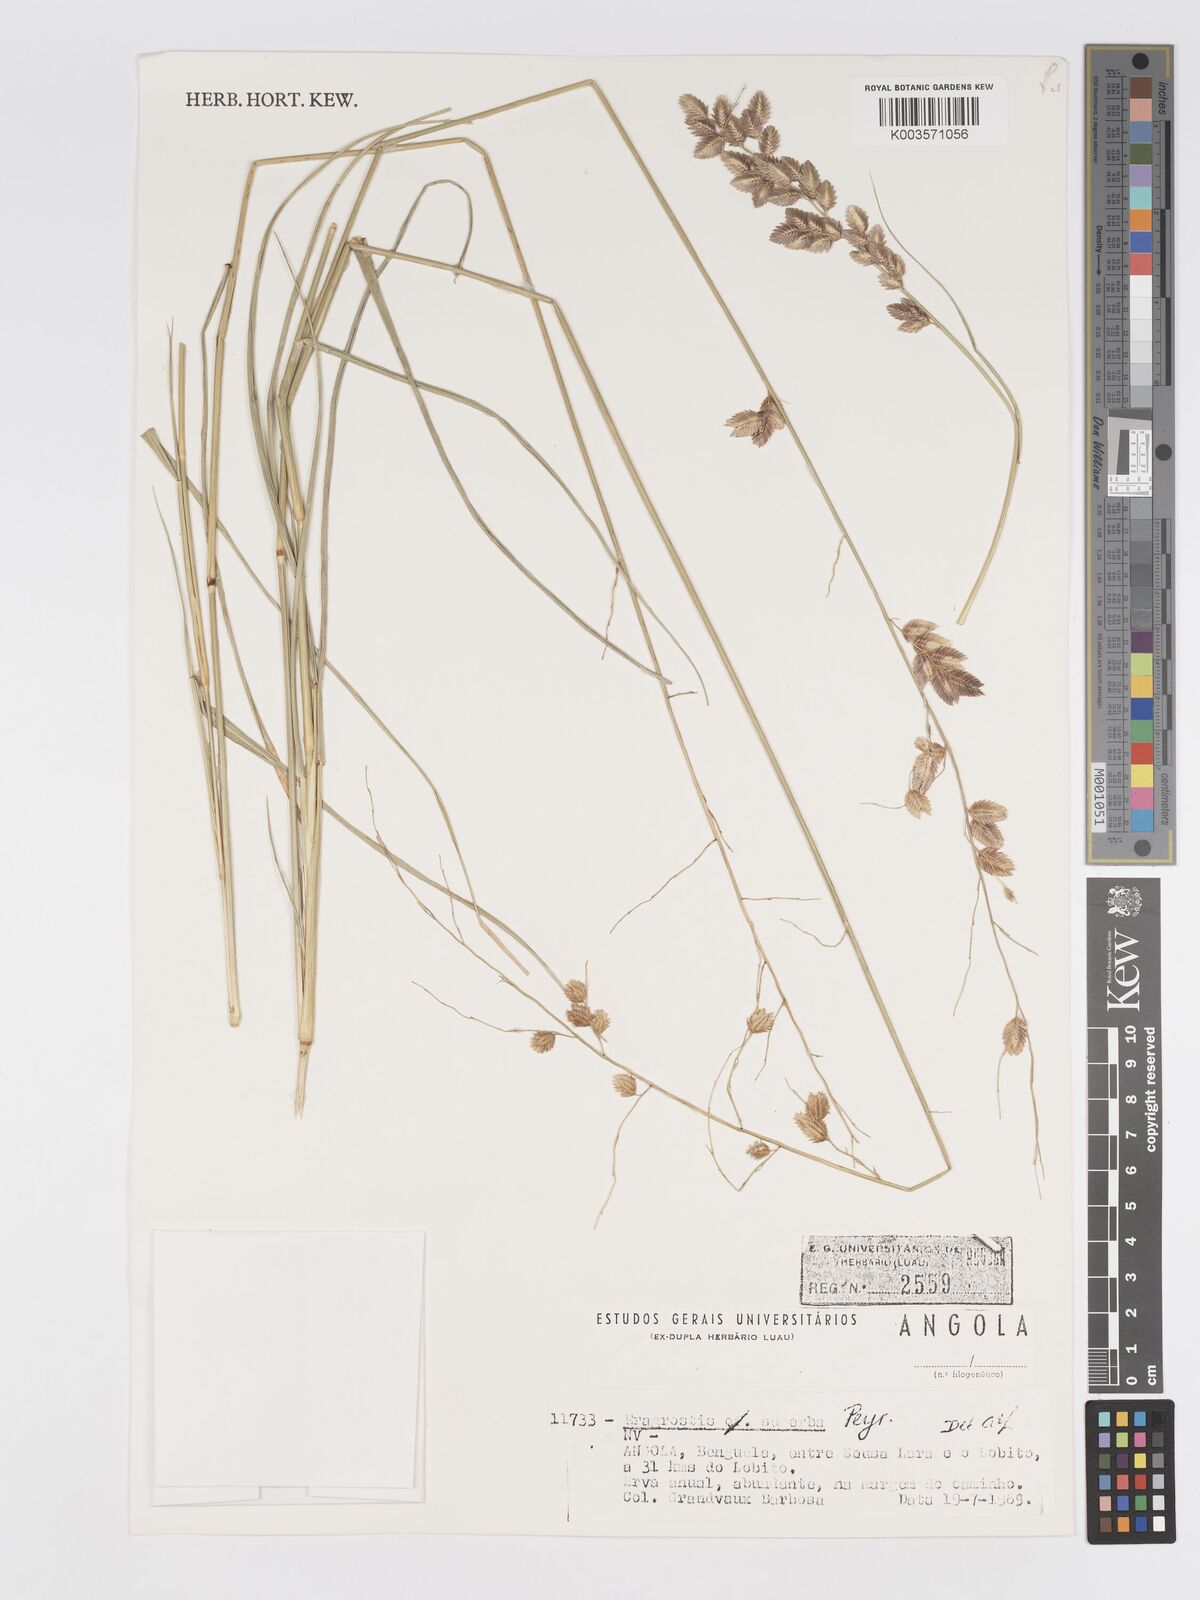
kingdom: Plantae
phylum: Tracheophyta
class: Liliopsida
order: Poales
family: Poaceae
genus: Eragrostis
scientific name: Eragrostis superba
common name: Wilman lovegrass
